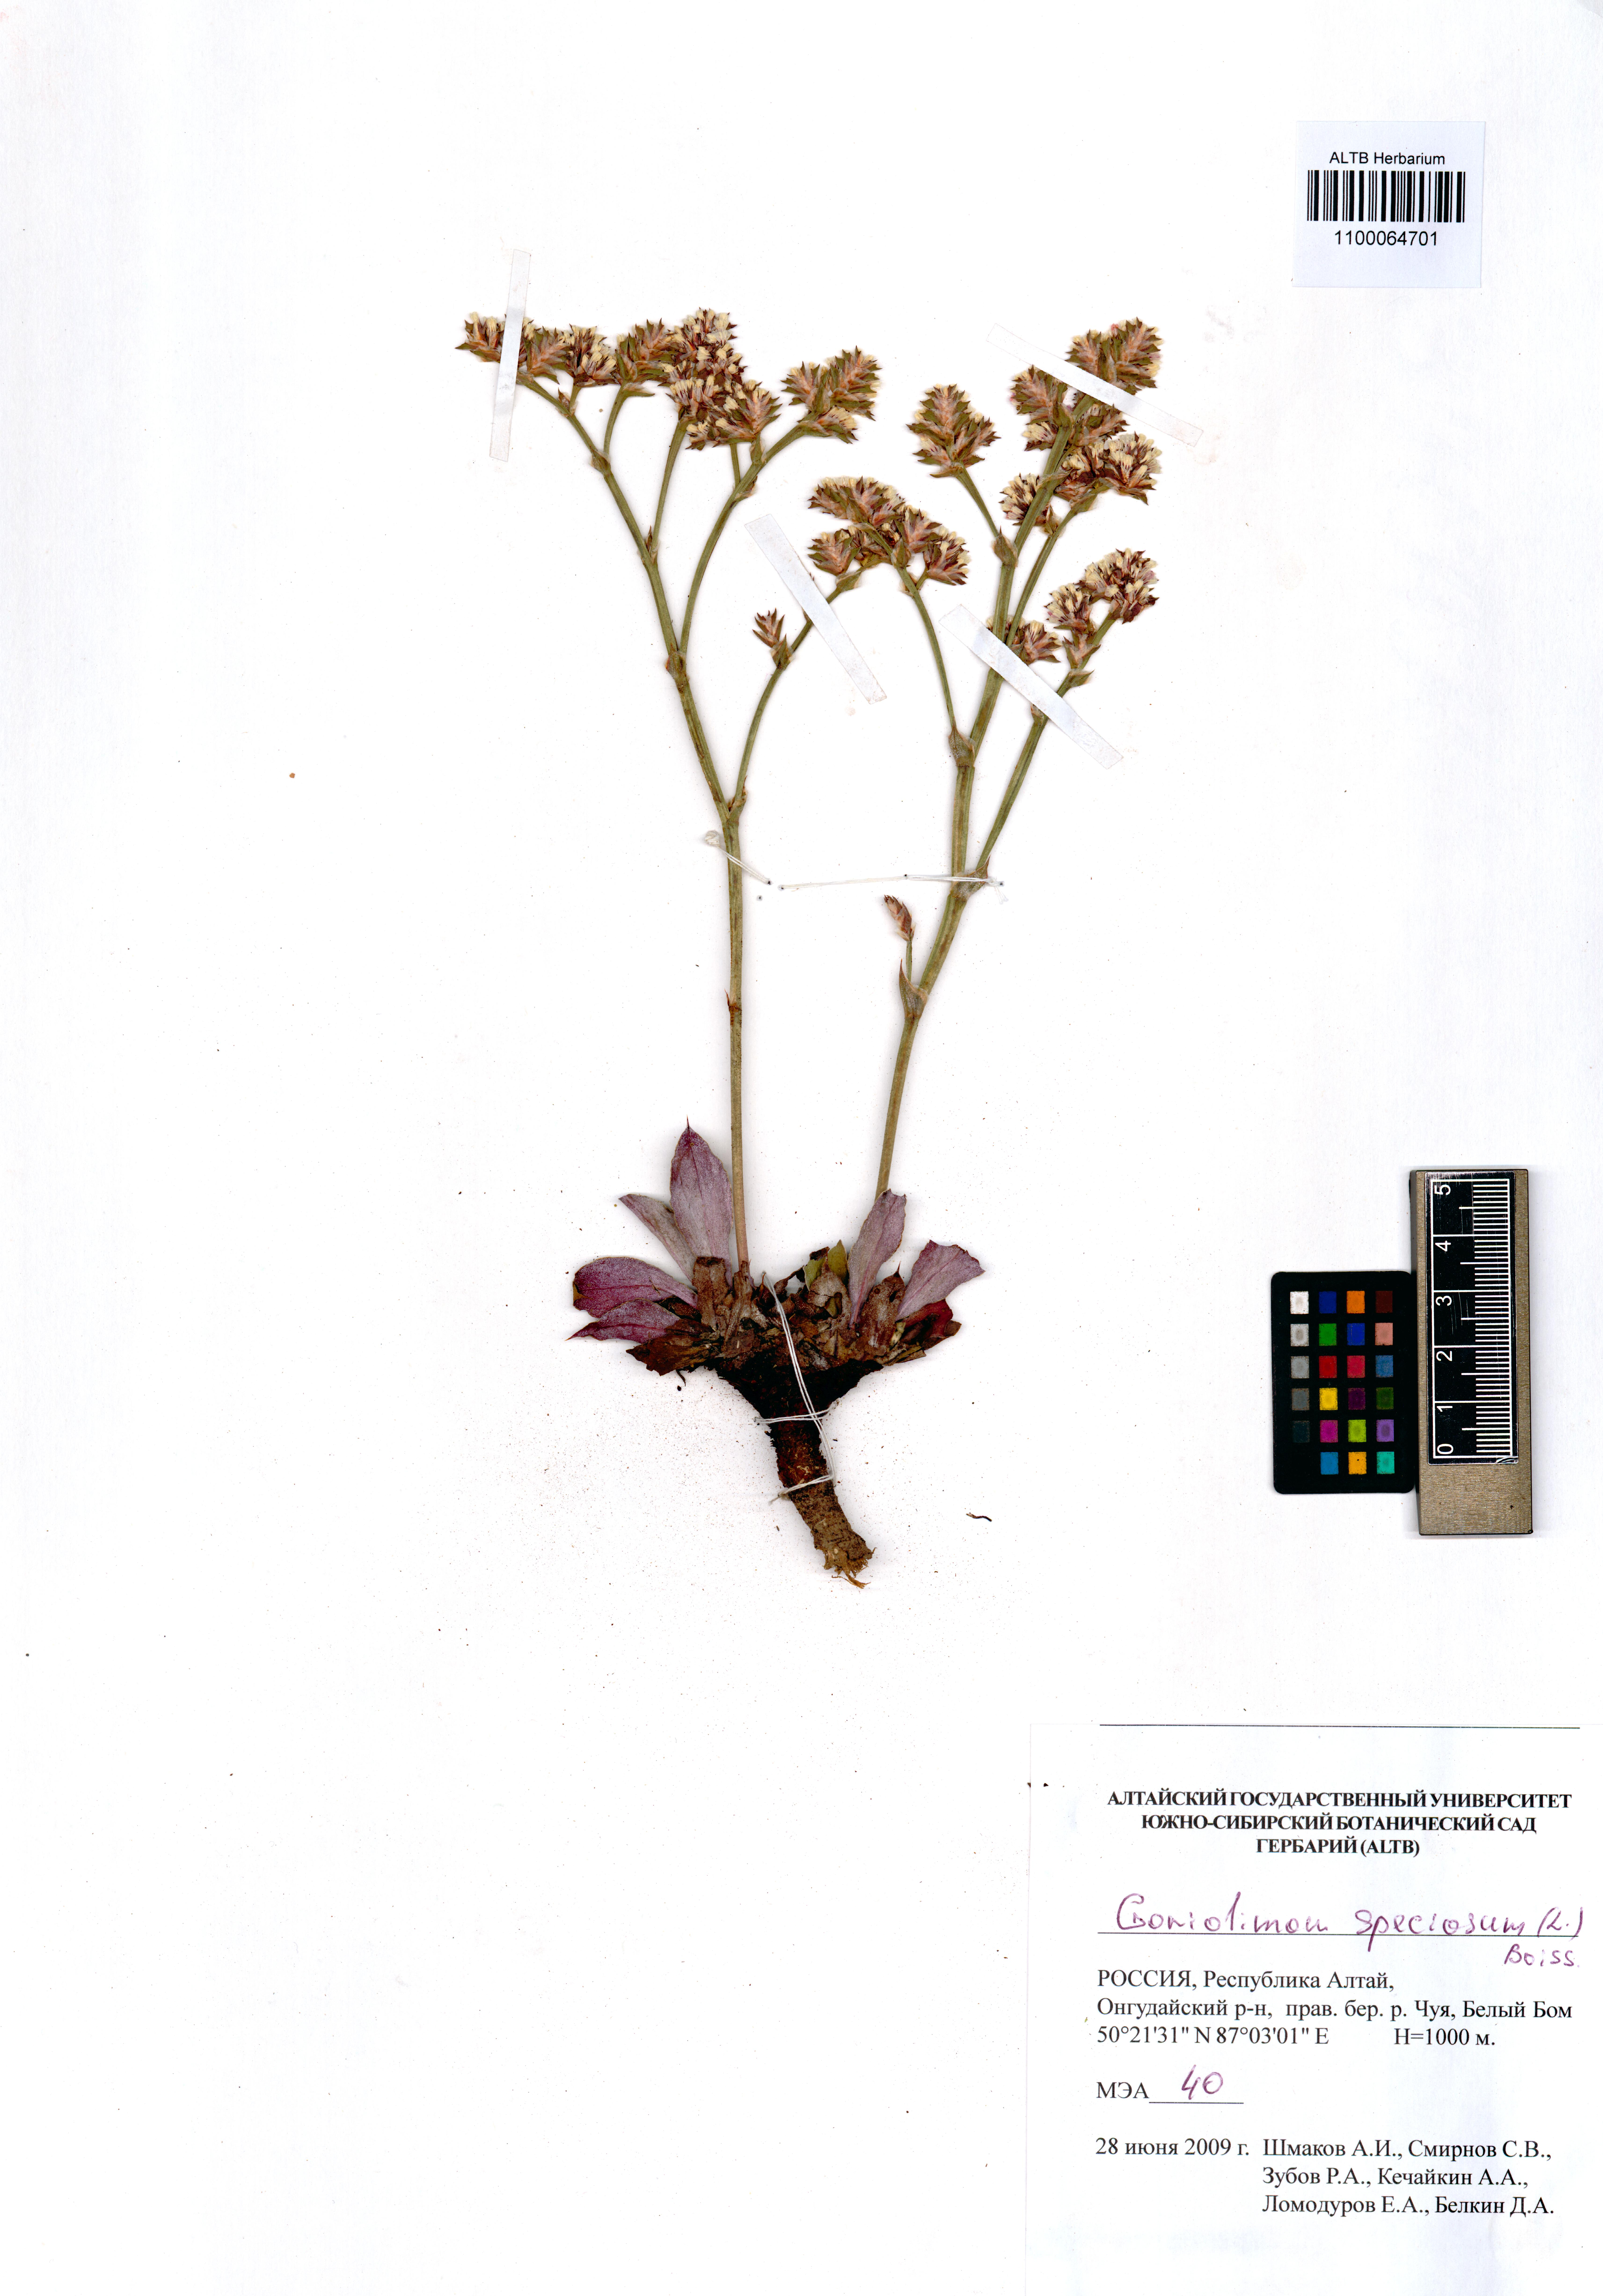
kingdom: Plantae
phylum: Tracheophyta
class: Magnoliopsida
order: Caryophyllales
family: Plumbaginaceae
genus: Goniolimon
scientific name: Goniolimon speciosum
